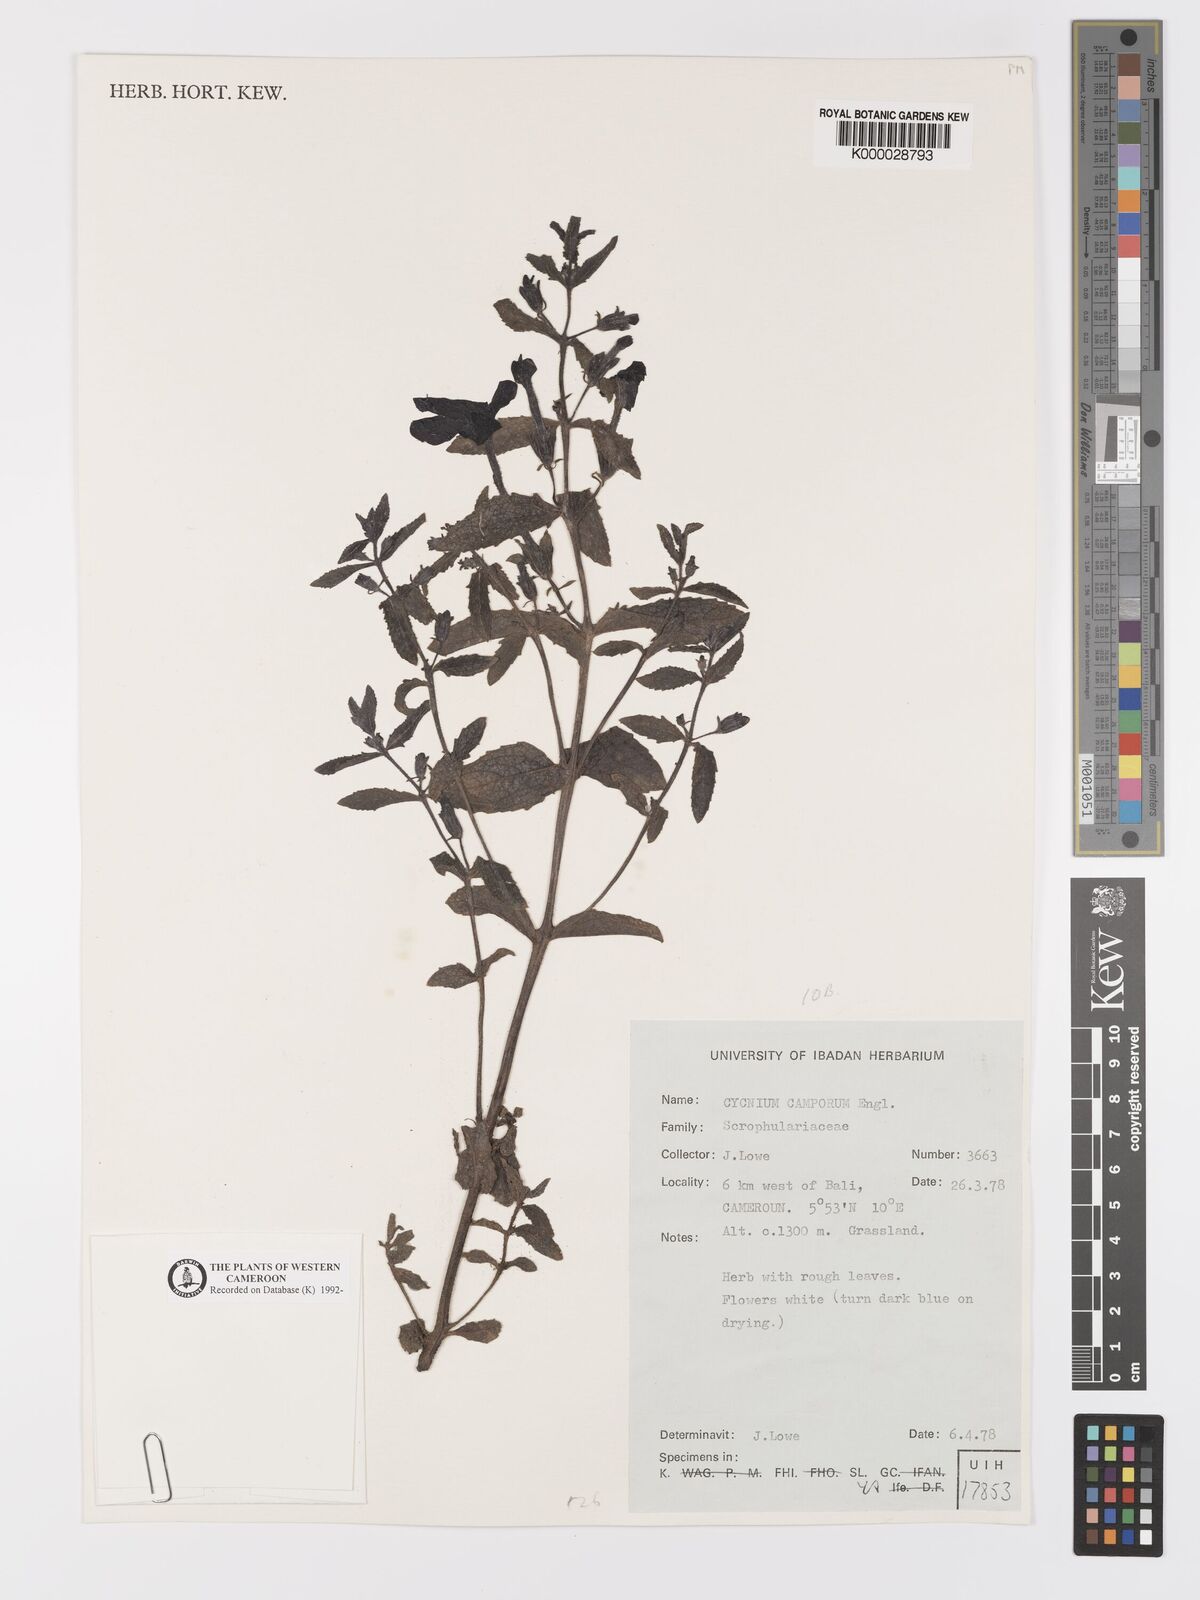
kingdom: Plantae
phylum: Tracheophyta
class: Magnoliopsida
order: Lamiales
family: Orobanchaceae
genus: Cycnium
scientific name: Cycnium adoense
